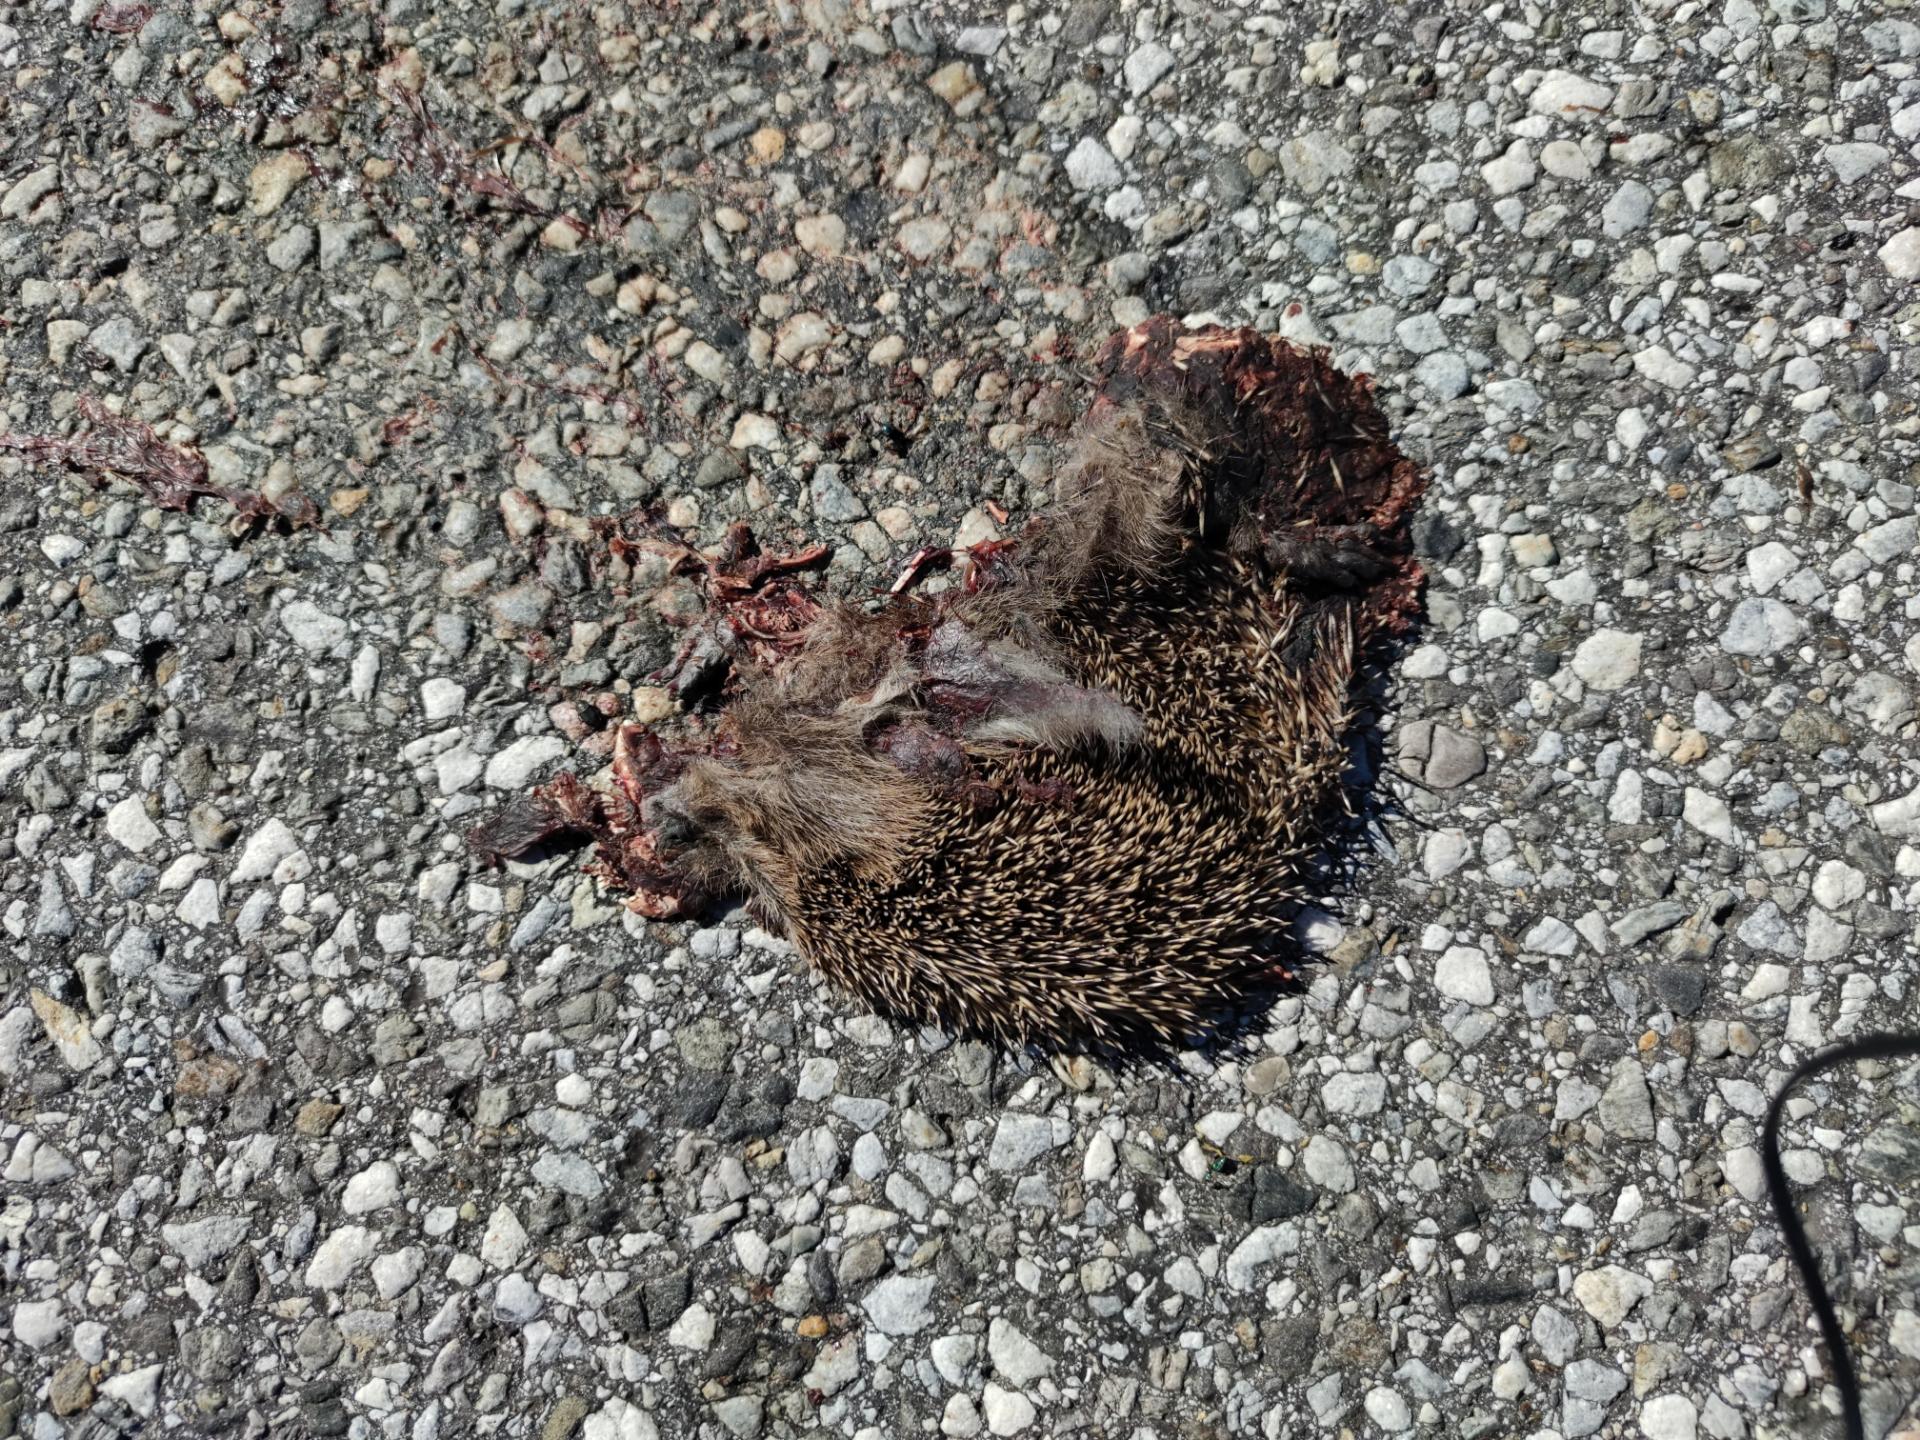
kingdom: Animalia
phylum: Chordata
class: Mammalia
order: Erinaceomorpha
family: Erinaceidae
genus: Erinaceus
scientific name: Erinaceus
